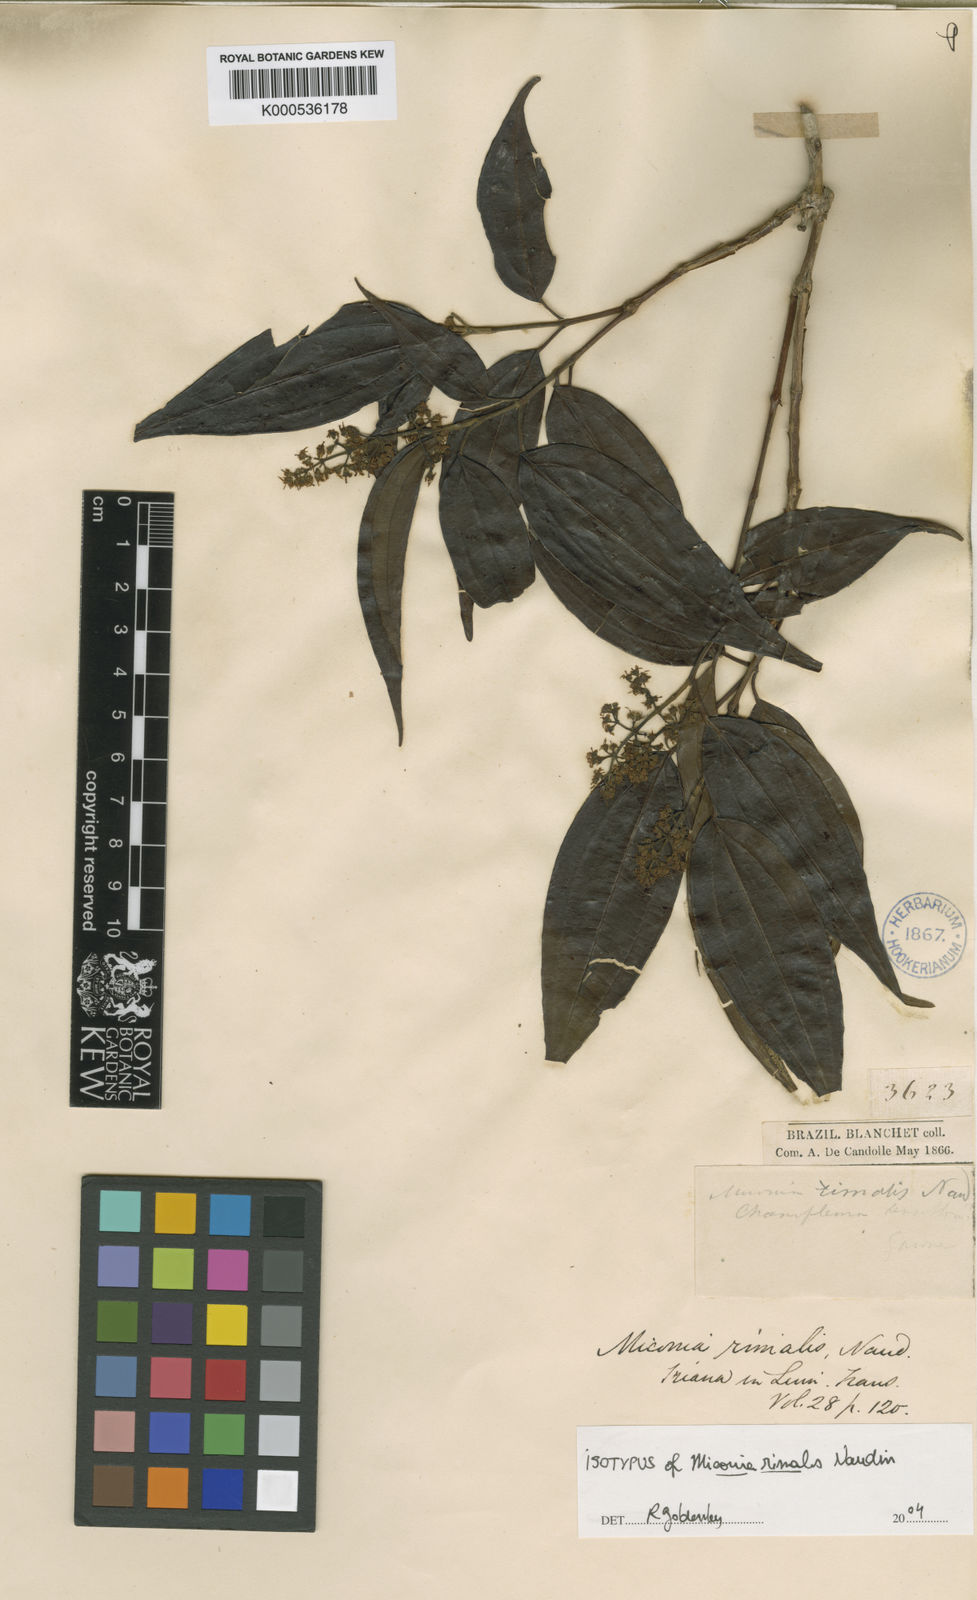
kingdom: Plantae
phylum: Tracheophyta
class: Magnoliopsida
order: Myrtales
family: Melastomataceae
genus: Miconia
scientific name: Miconia rimalis
